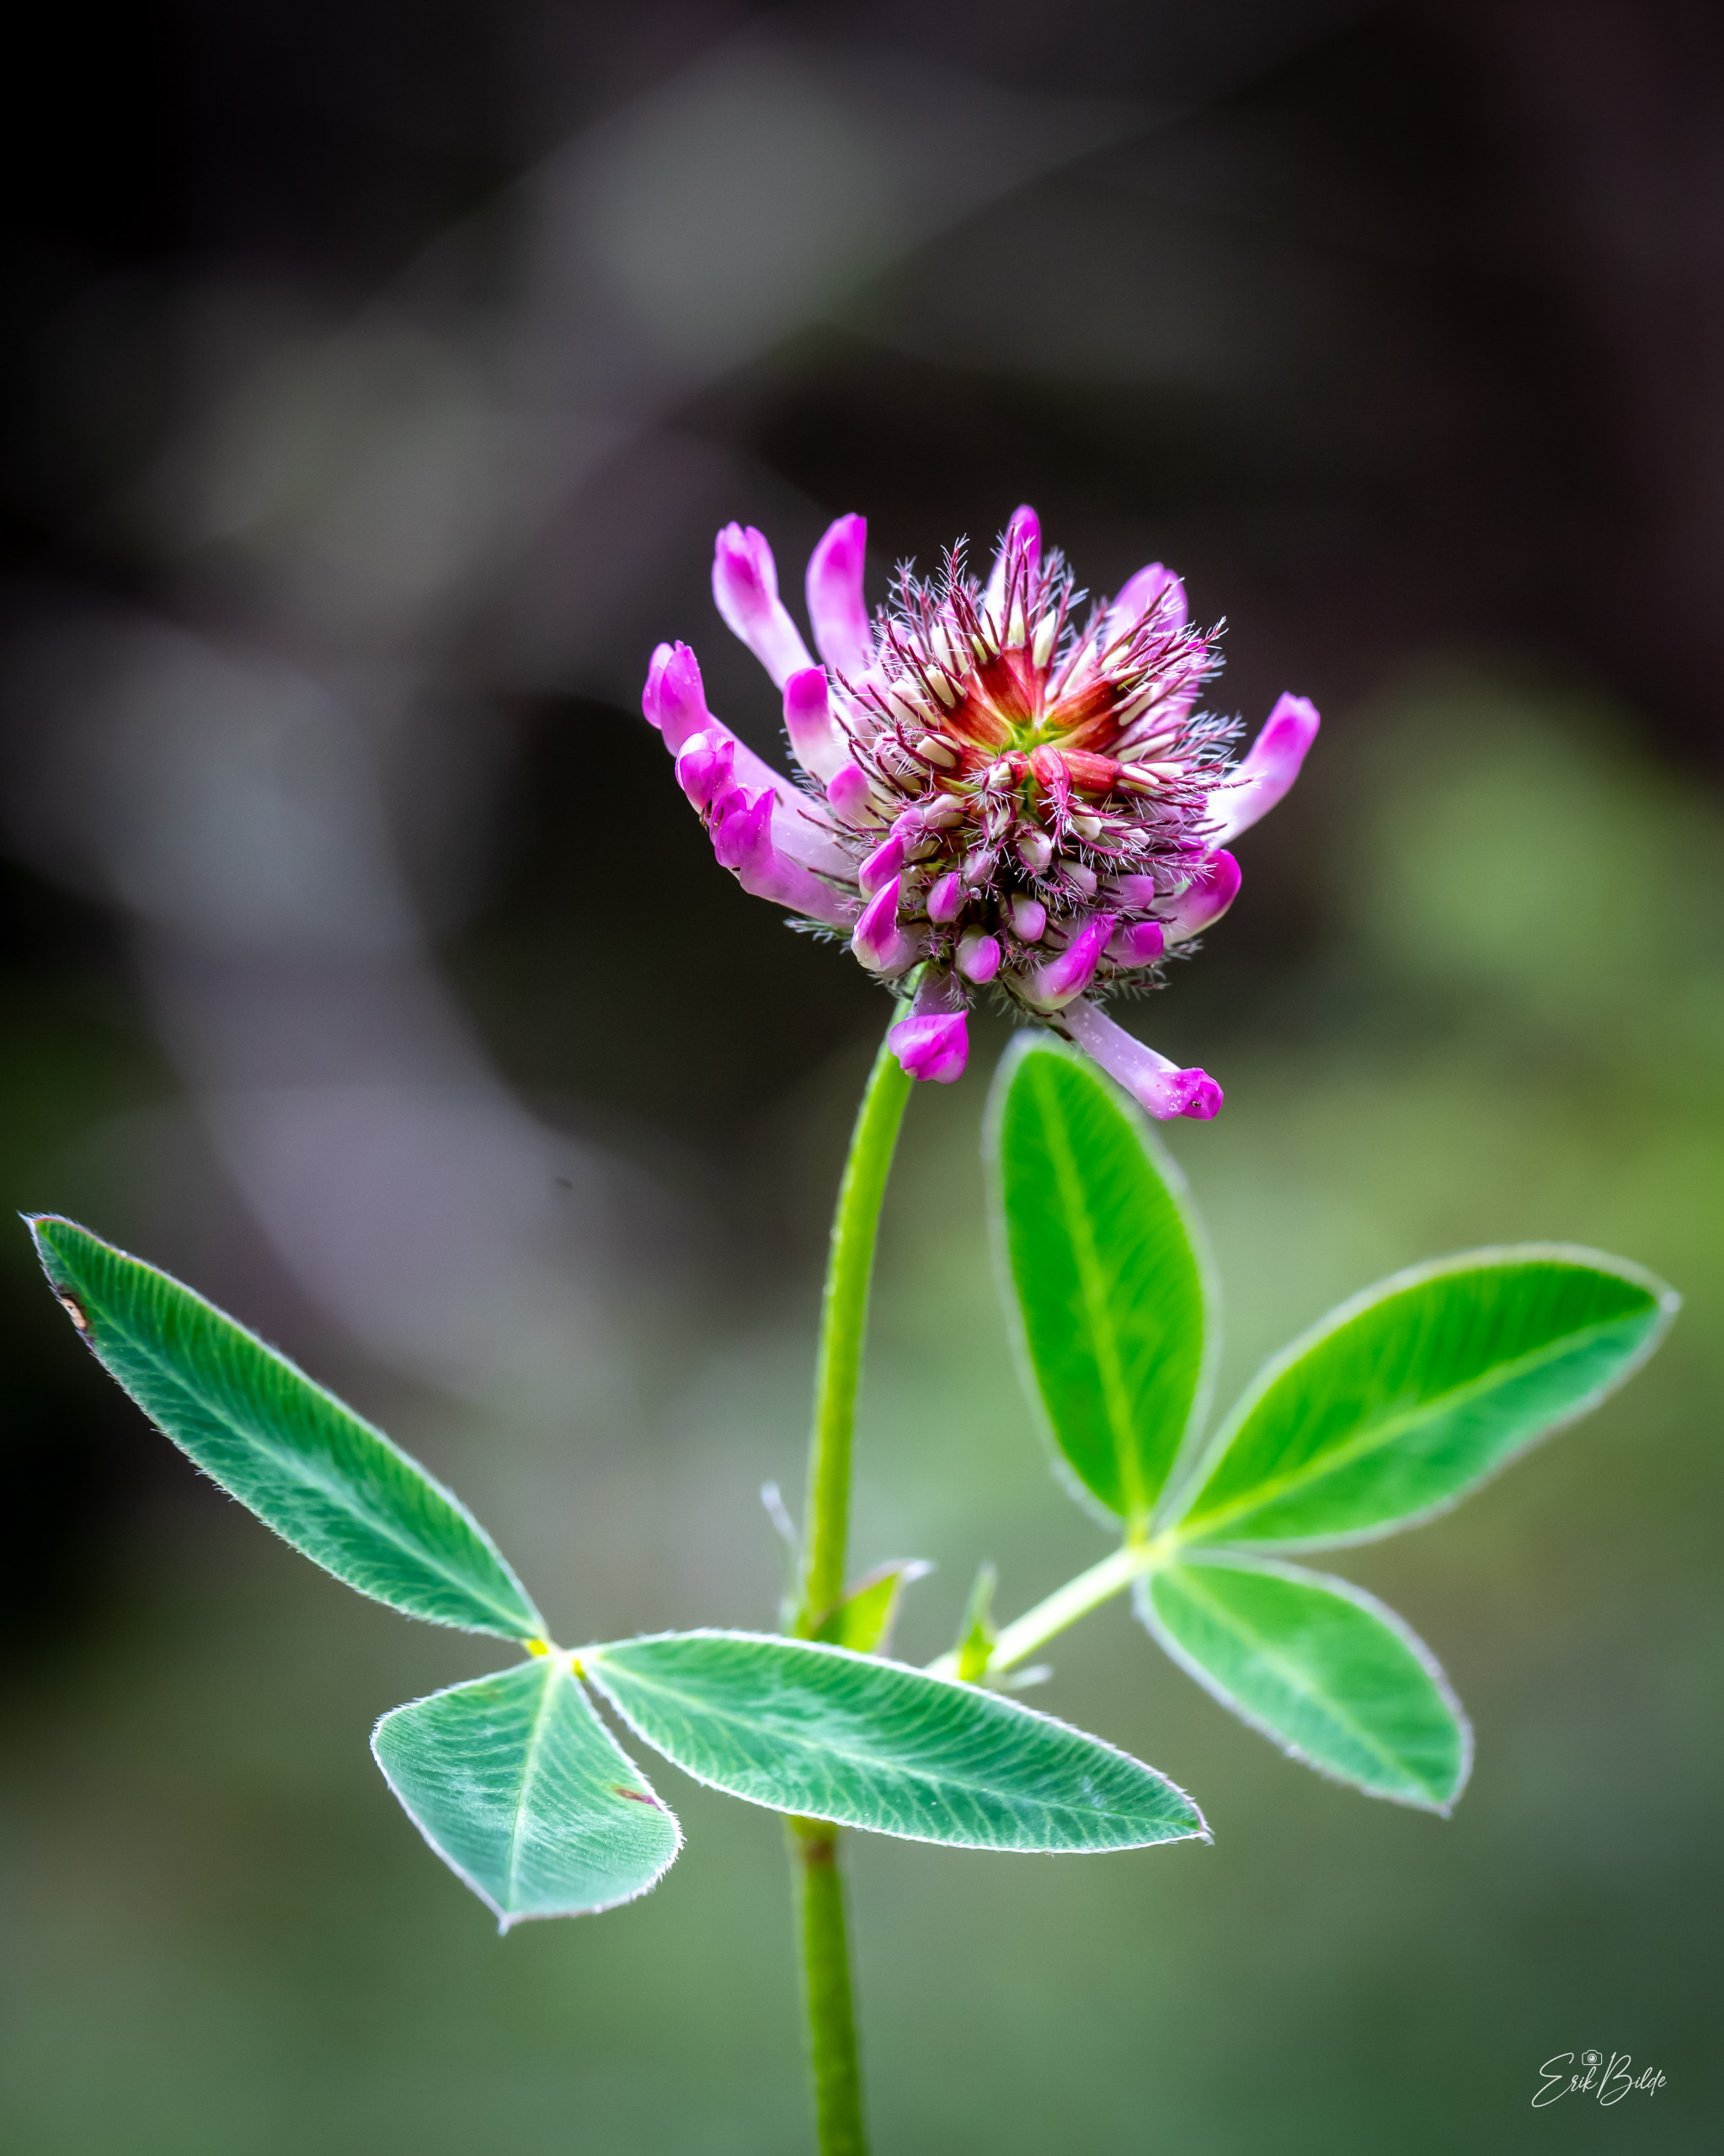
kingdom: Plantae
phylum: Tracheophyta
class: Magnoliopsida
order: Fabales
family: Fabaceae
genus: Trifolium
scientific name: Trifolium medium
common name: Bugtet kløver
